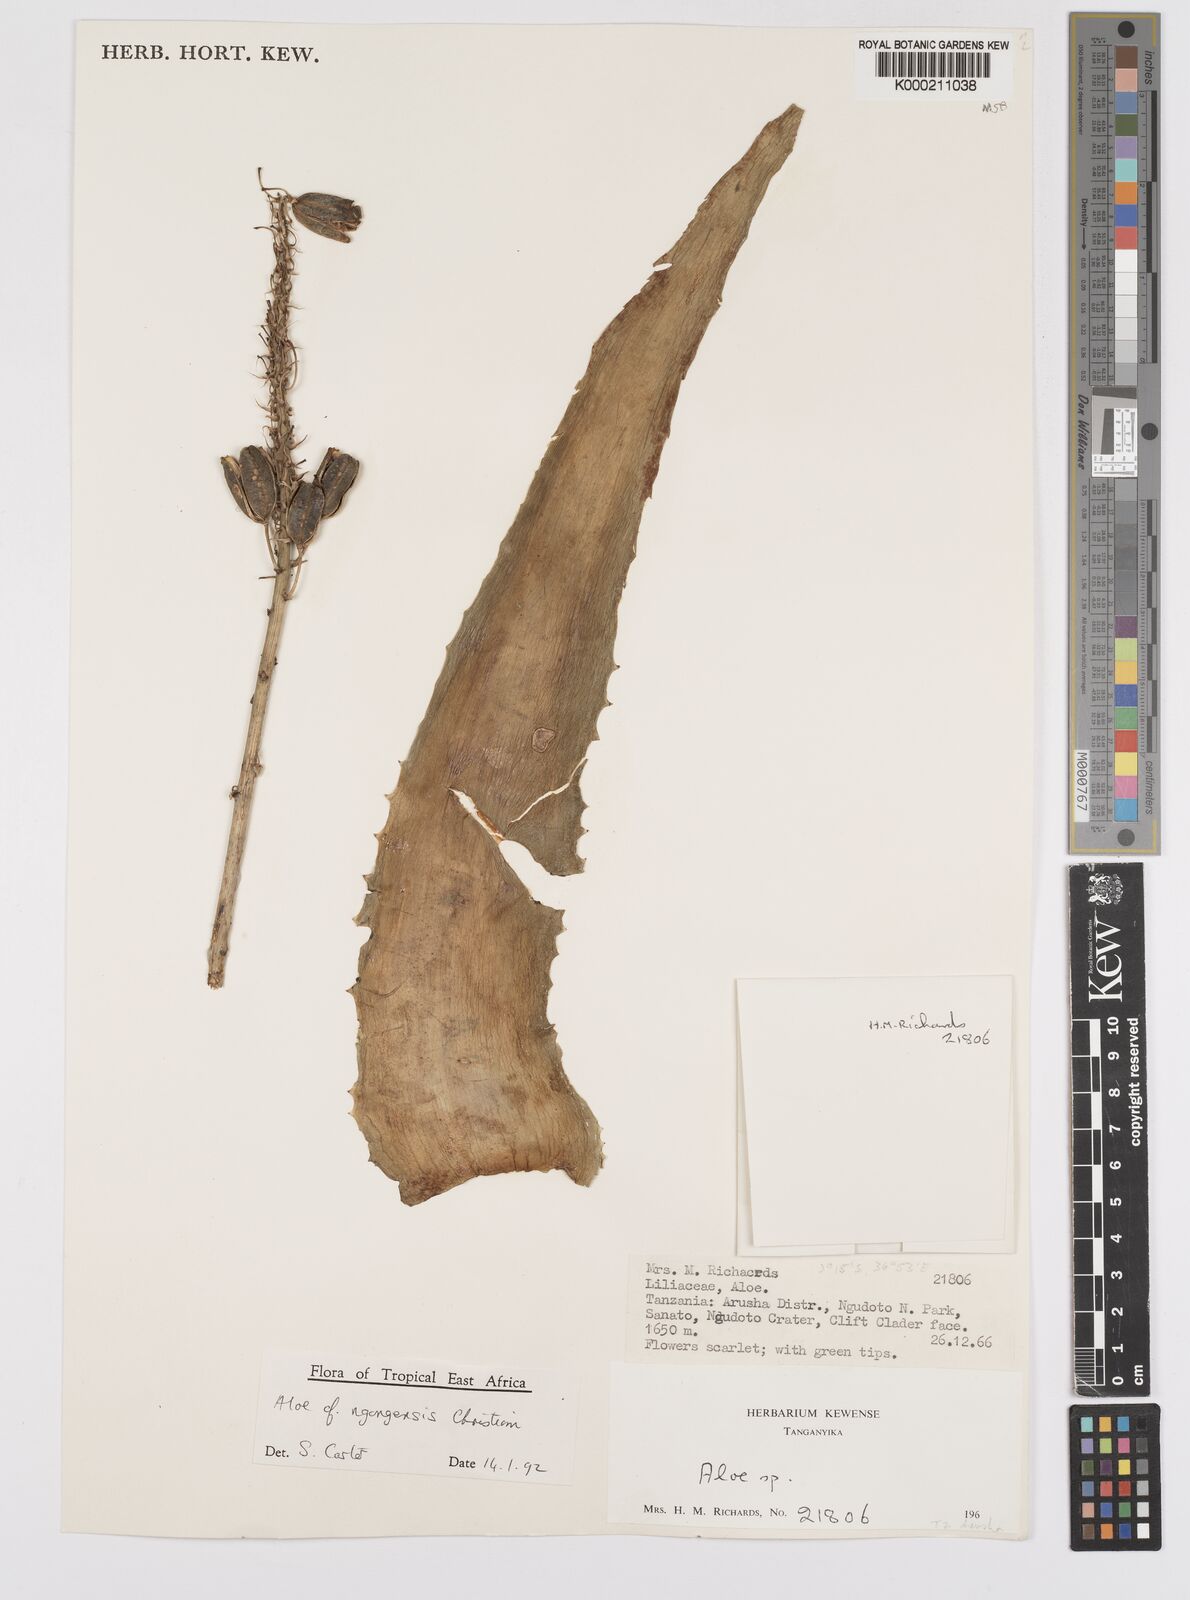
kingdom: Plantae
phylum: Tracheophyta
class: Liliopsida
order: Asparagales
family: Asphodelaceae
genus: Aloe
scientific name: Aloe ngongensis
